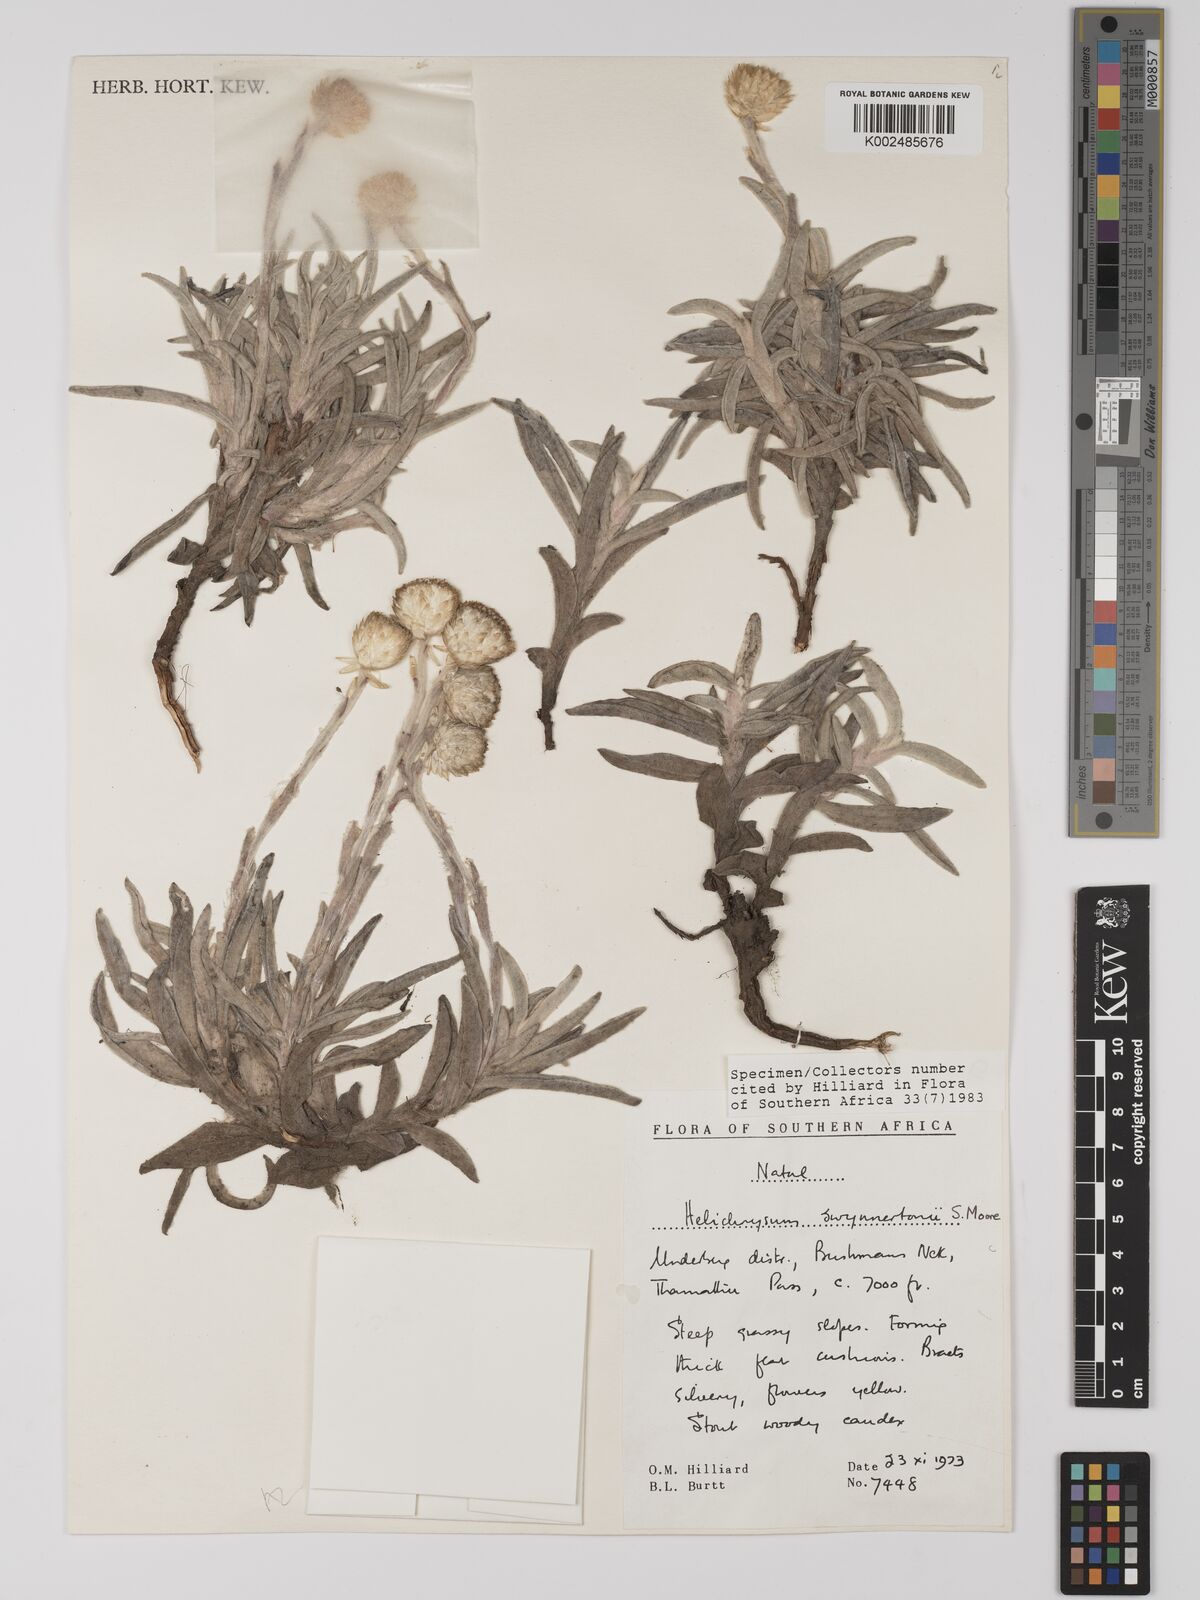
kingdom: Plantae
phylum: Tracheophyta
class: Magnoliopsida
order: Asterales
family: Asteraceae
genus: Helichrysum
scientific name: Helichrysum swynnertonii
